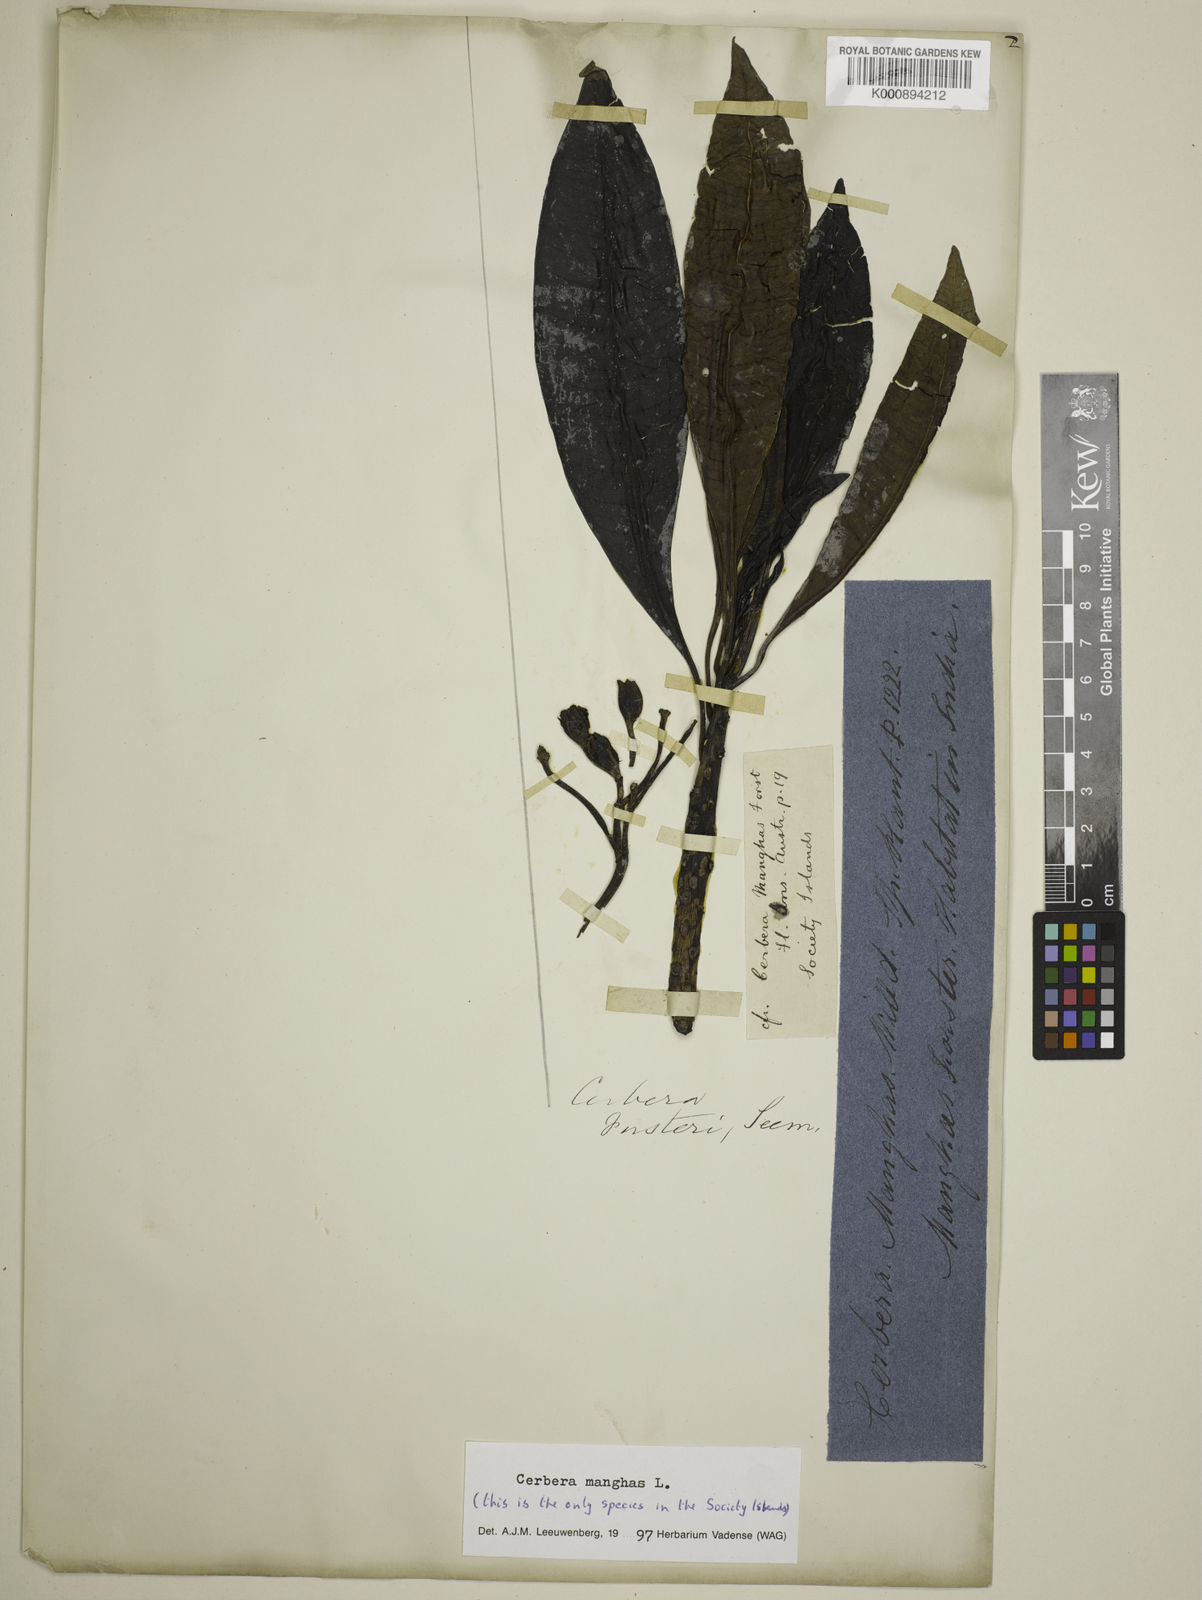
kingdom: Plantae
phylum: Tracheophyta
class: Magnoliopsida
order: Gentianales
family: Apocynaceae
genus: Cerbera
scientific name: Cerbera manghas
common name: Reva
